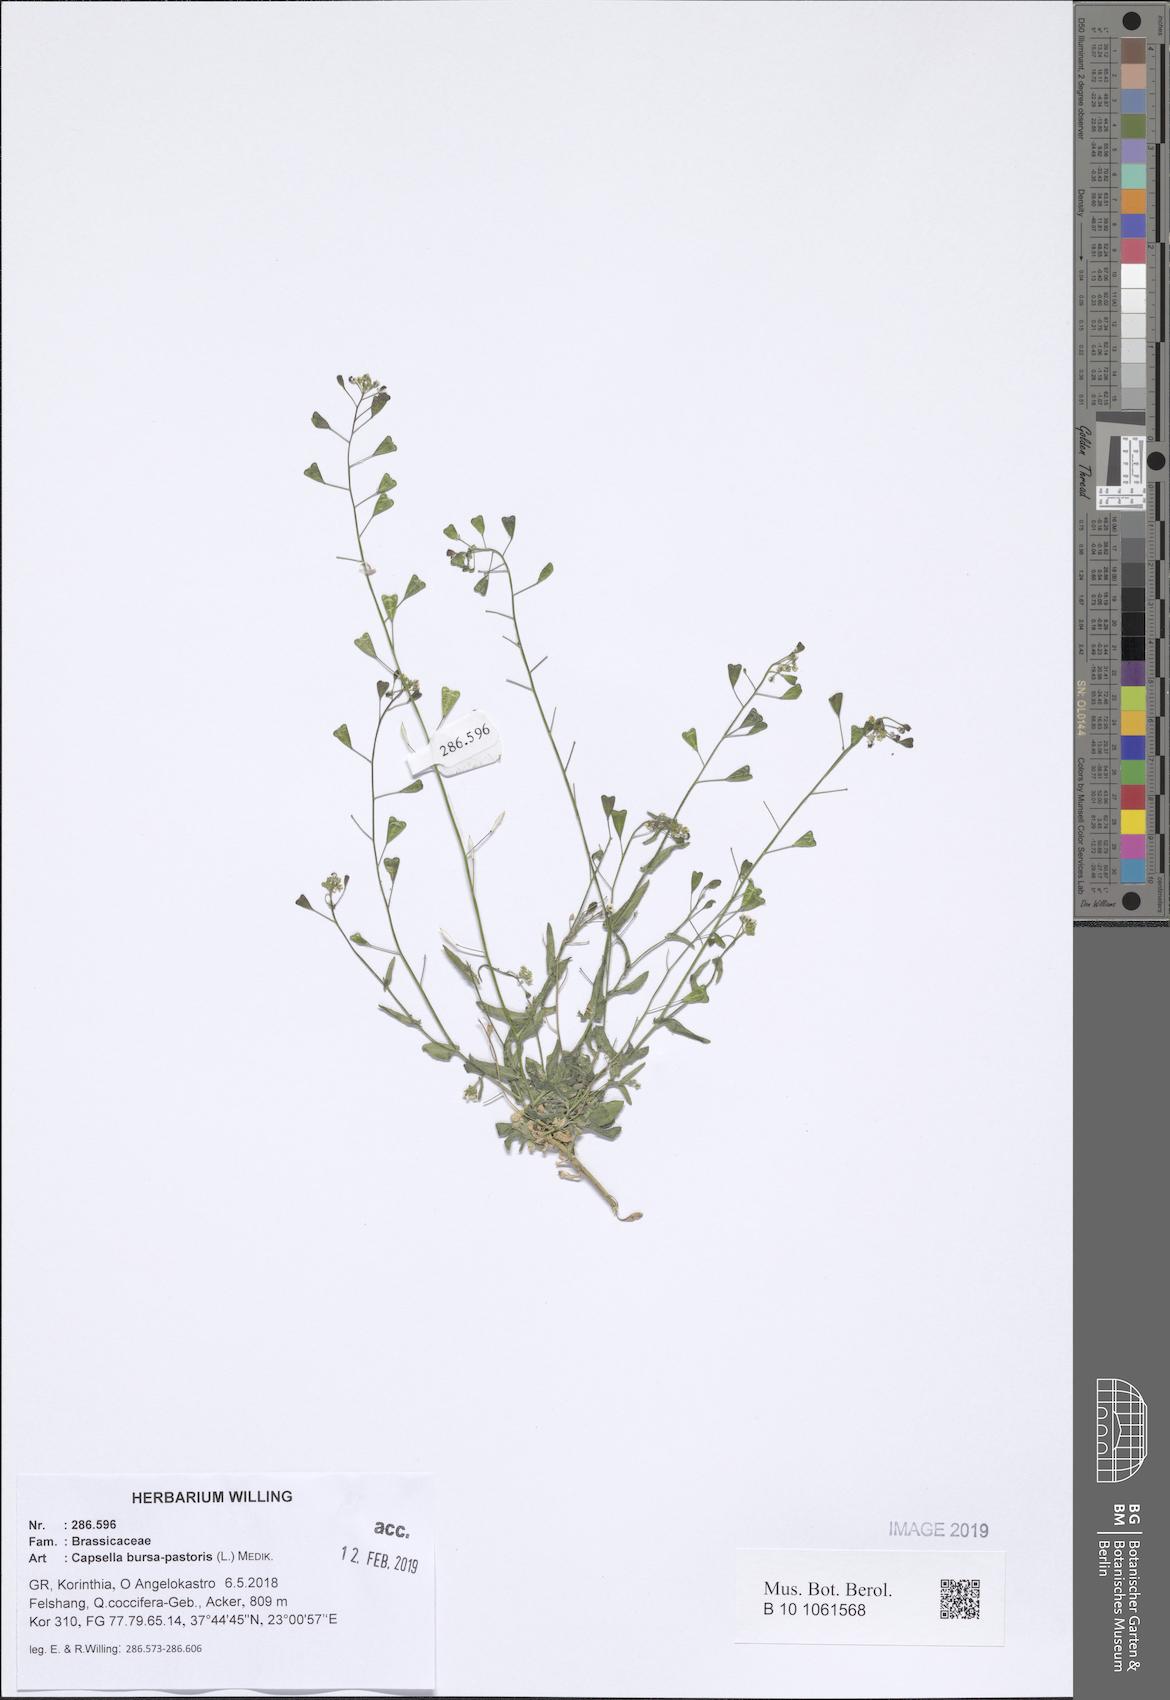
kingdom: Plantae
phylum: Tracheophyta
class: Magnoliopsida
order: Brassicales
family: Brassicaceae
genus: Capsella
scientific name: Capsella bursa-pastoris
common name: Shepherd's purse
